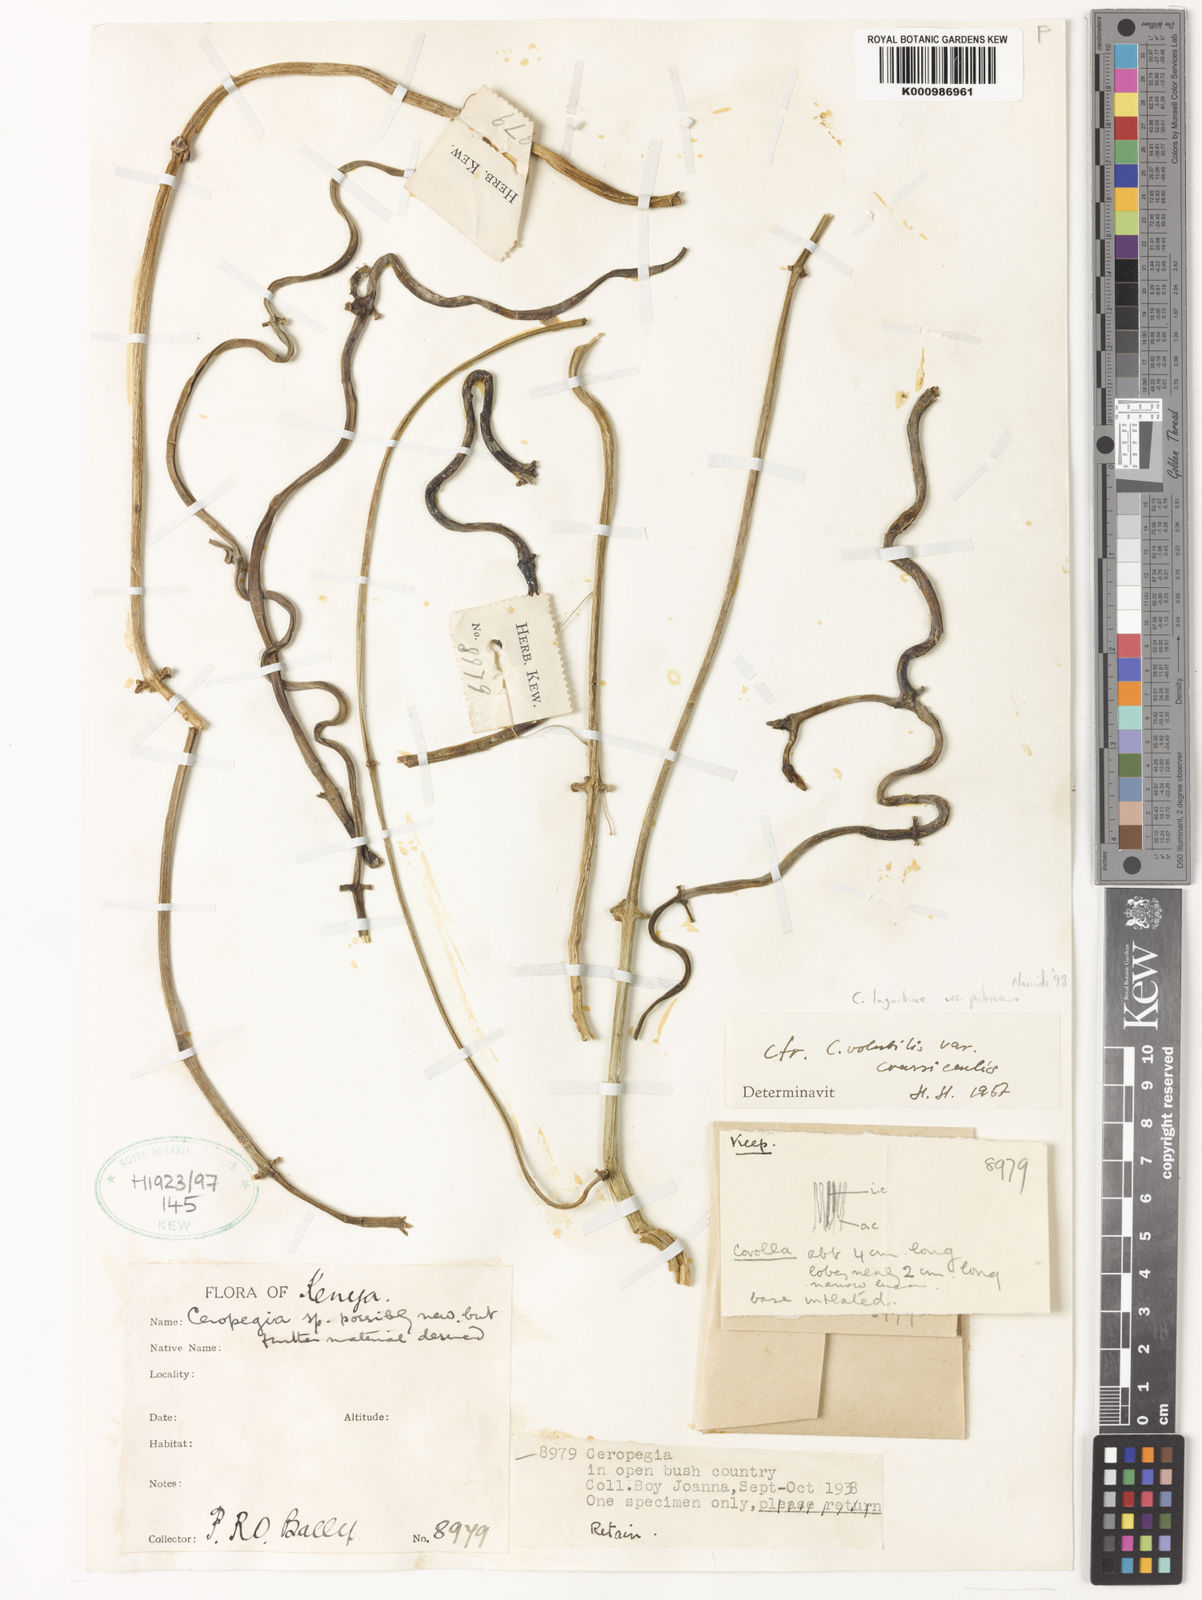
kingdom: Plantae
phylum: Tracheophyta
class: Magnoliopsida
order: Gentianales
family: Apocynaceae
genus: Ceropegia
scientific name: Ceropegia lugardiae
